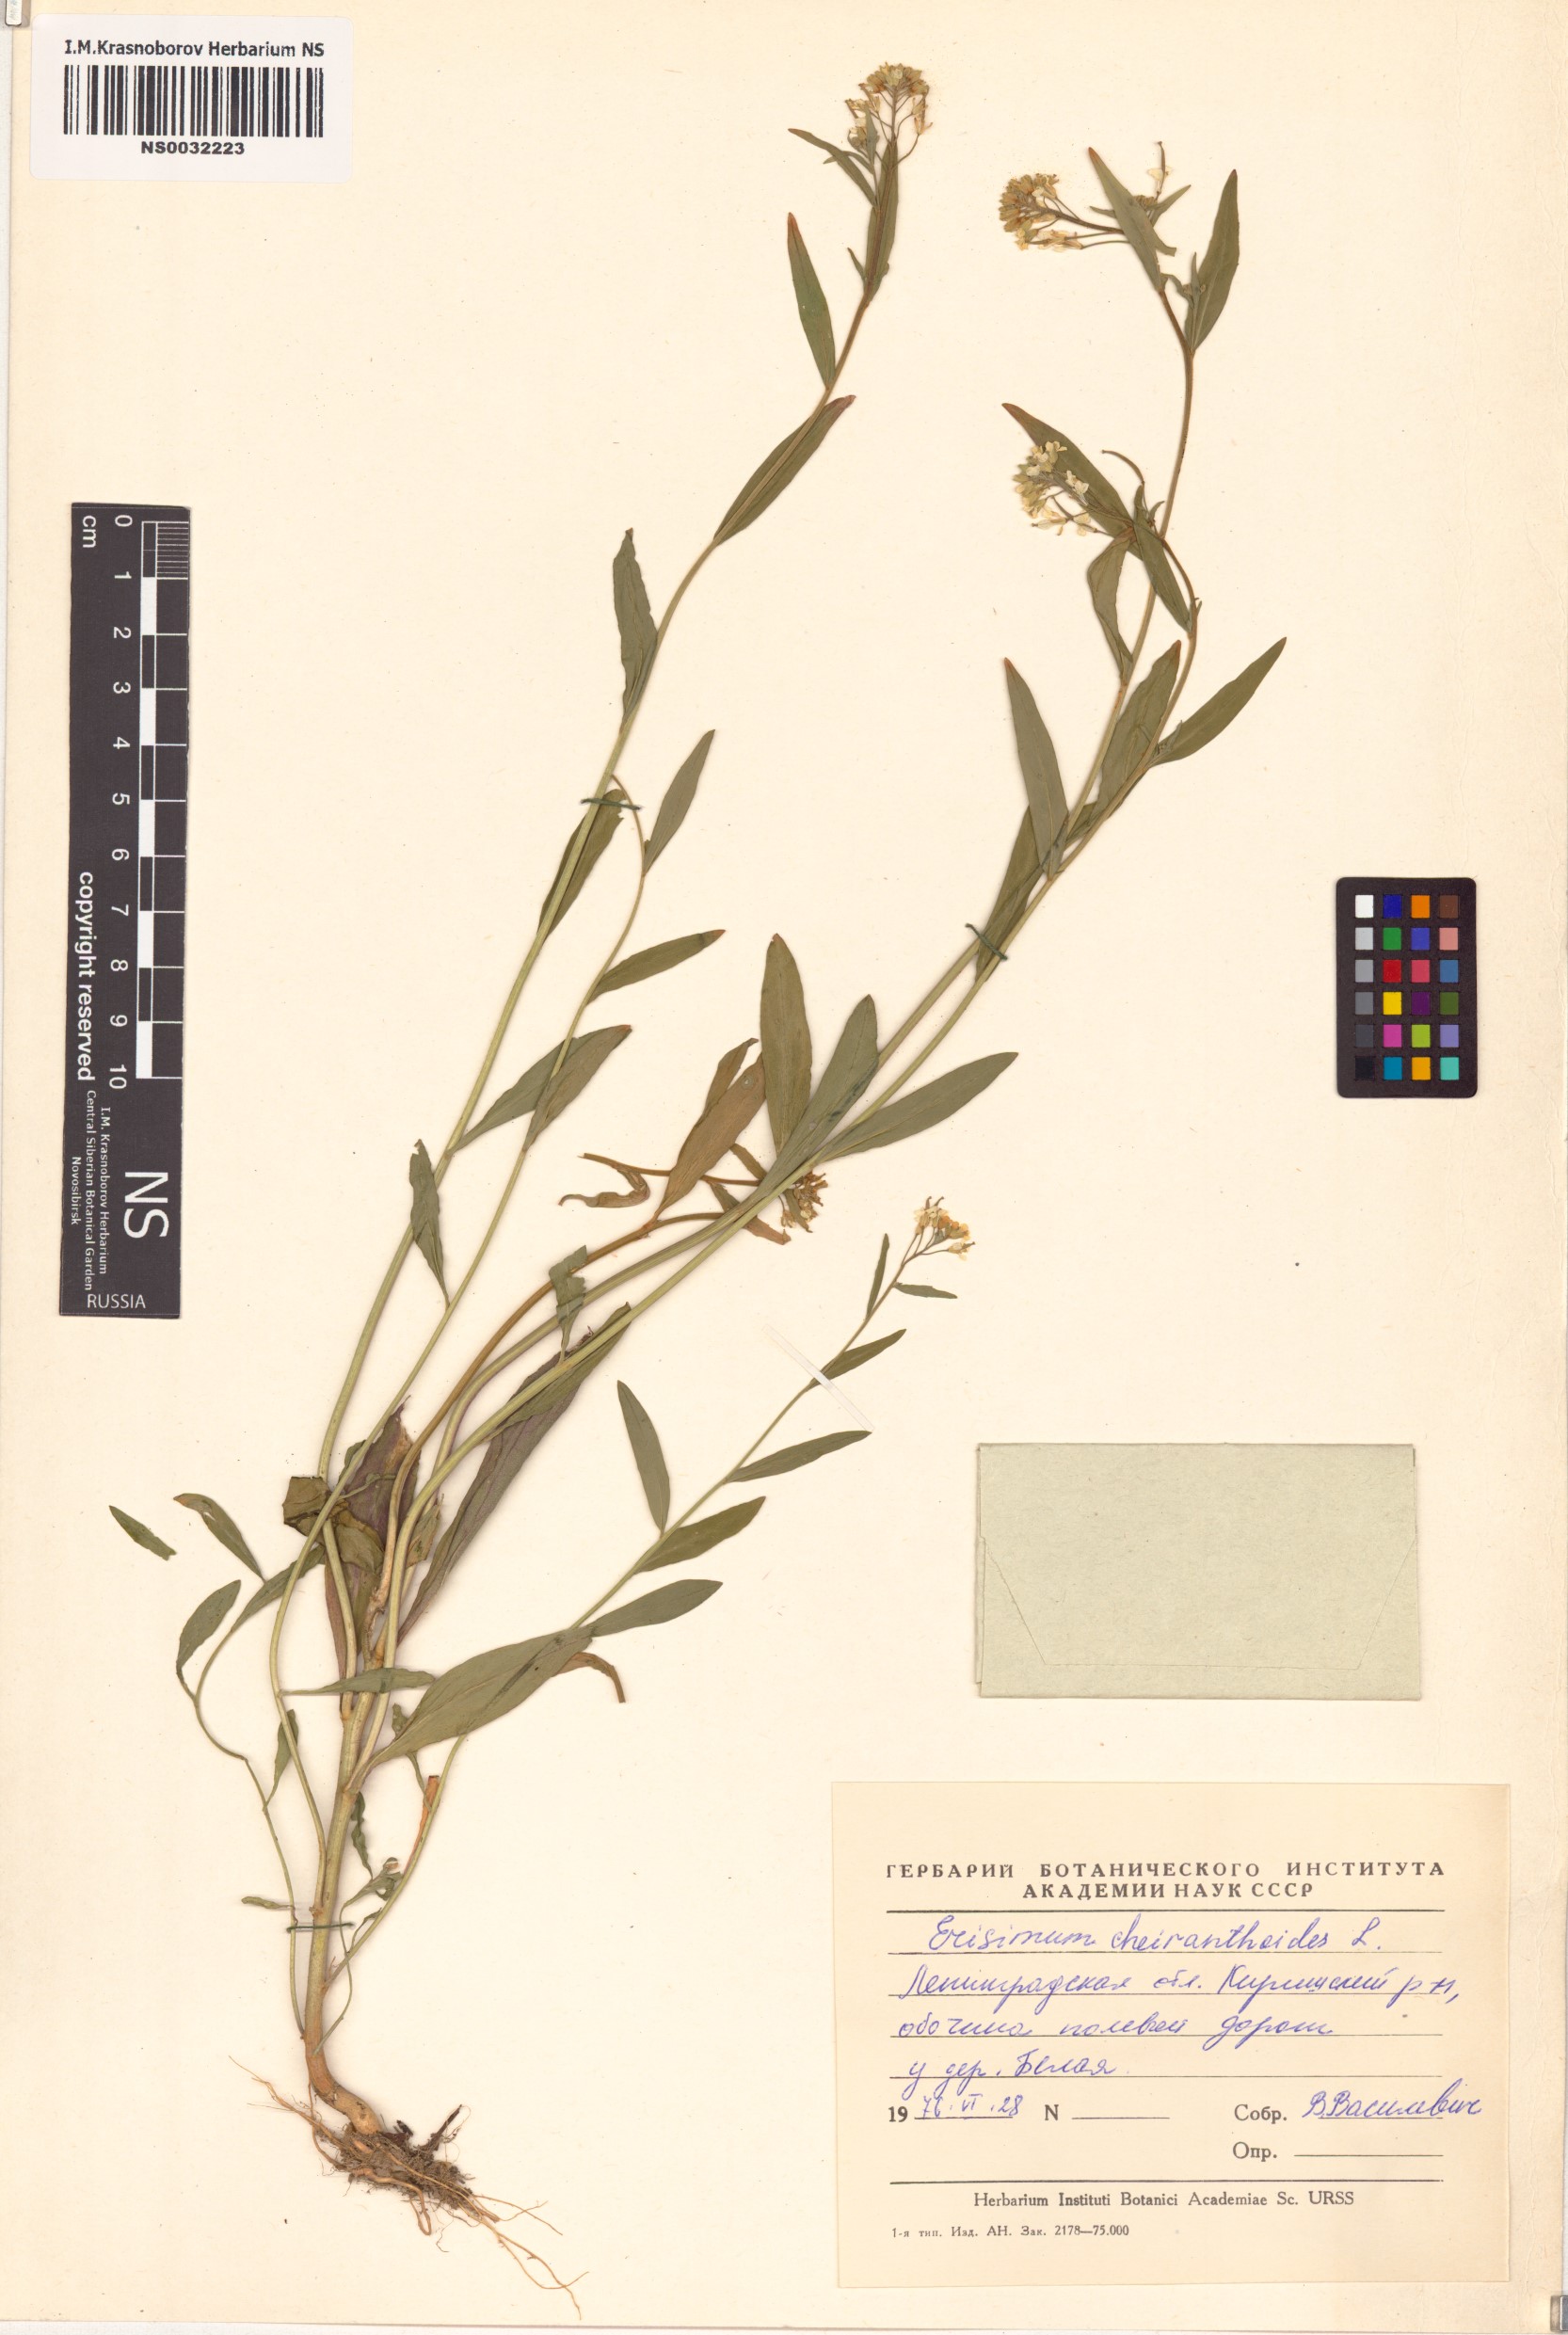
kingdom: Plantae
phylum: Tracheophyta
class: Magnoliopsida
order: Brassicales
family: Brassicaceae
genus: Erysimum
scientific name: Erysimum cheiranthoides
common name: Treacle mustard
